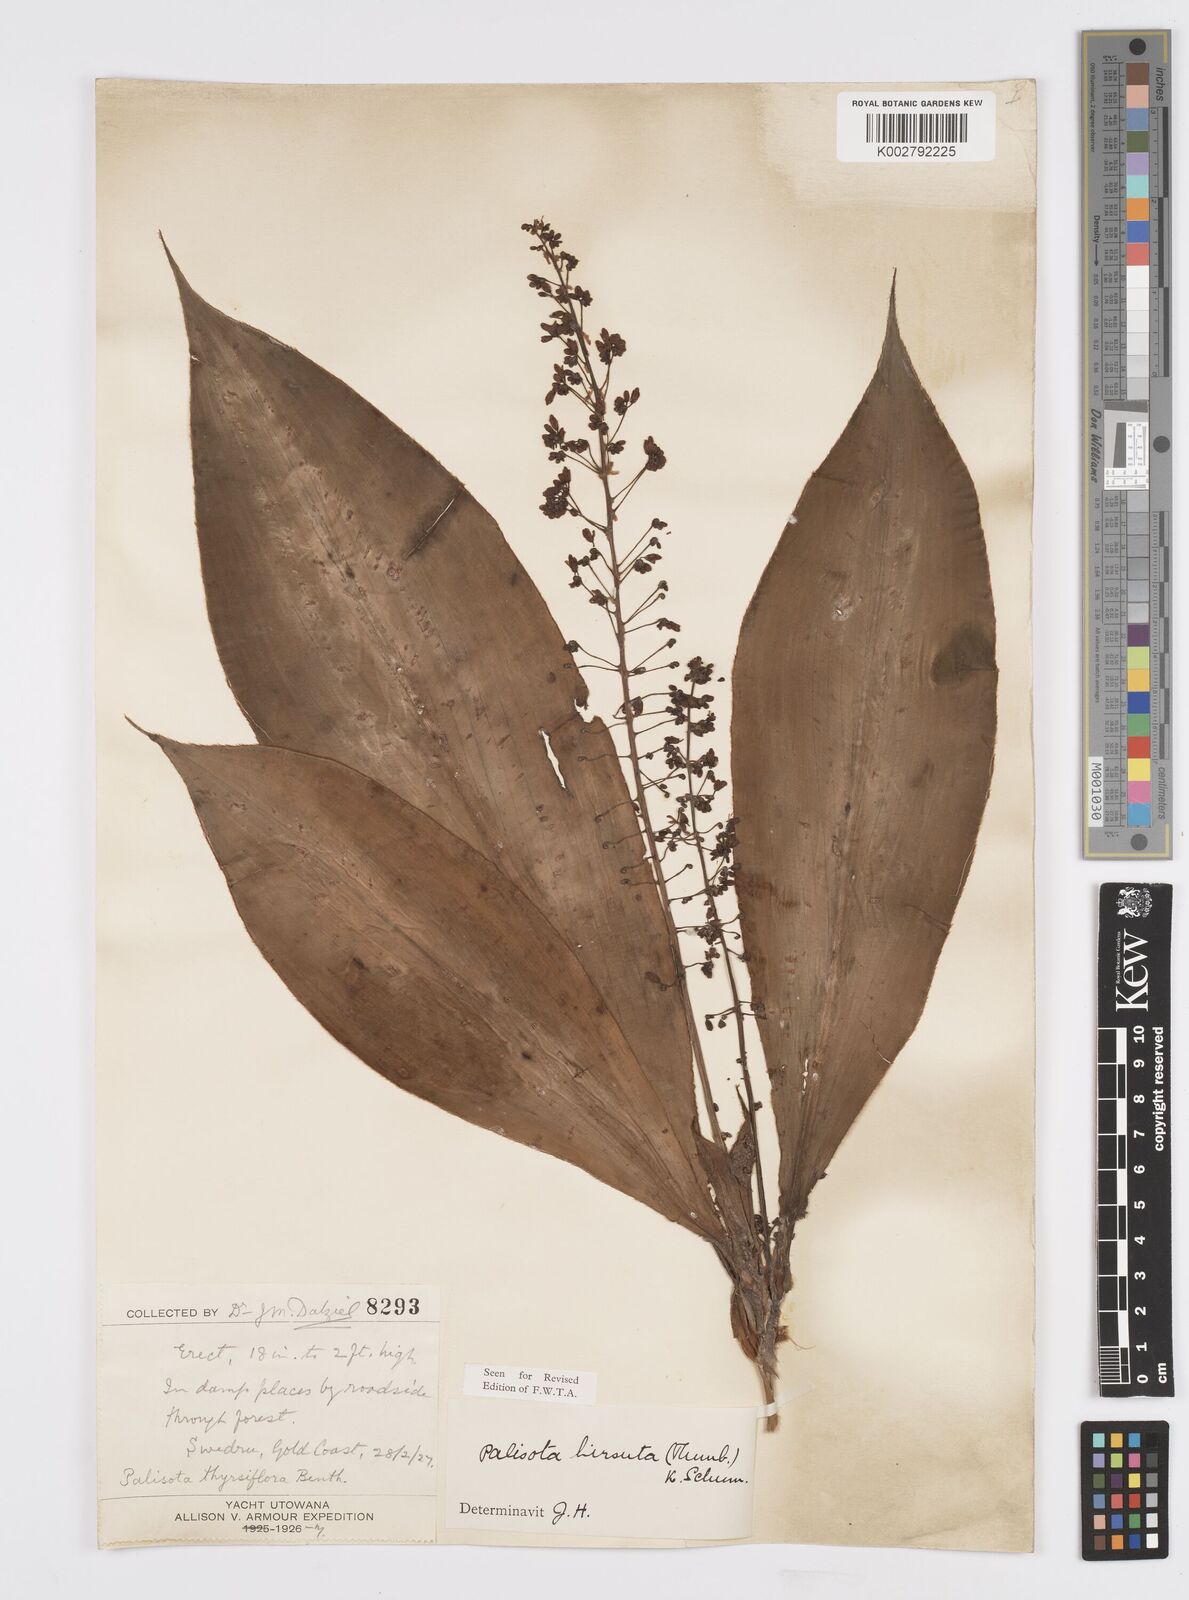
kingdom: Plantae
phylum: Tracheophyta
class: Liliopsida
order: Commelinales
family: Commelinaceae
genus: Palisota
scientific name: Palisota hirsuta
